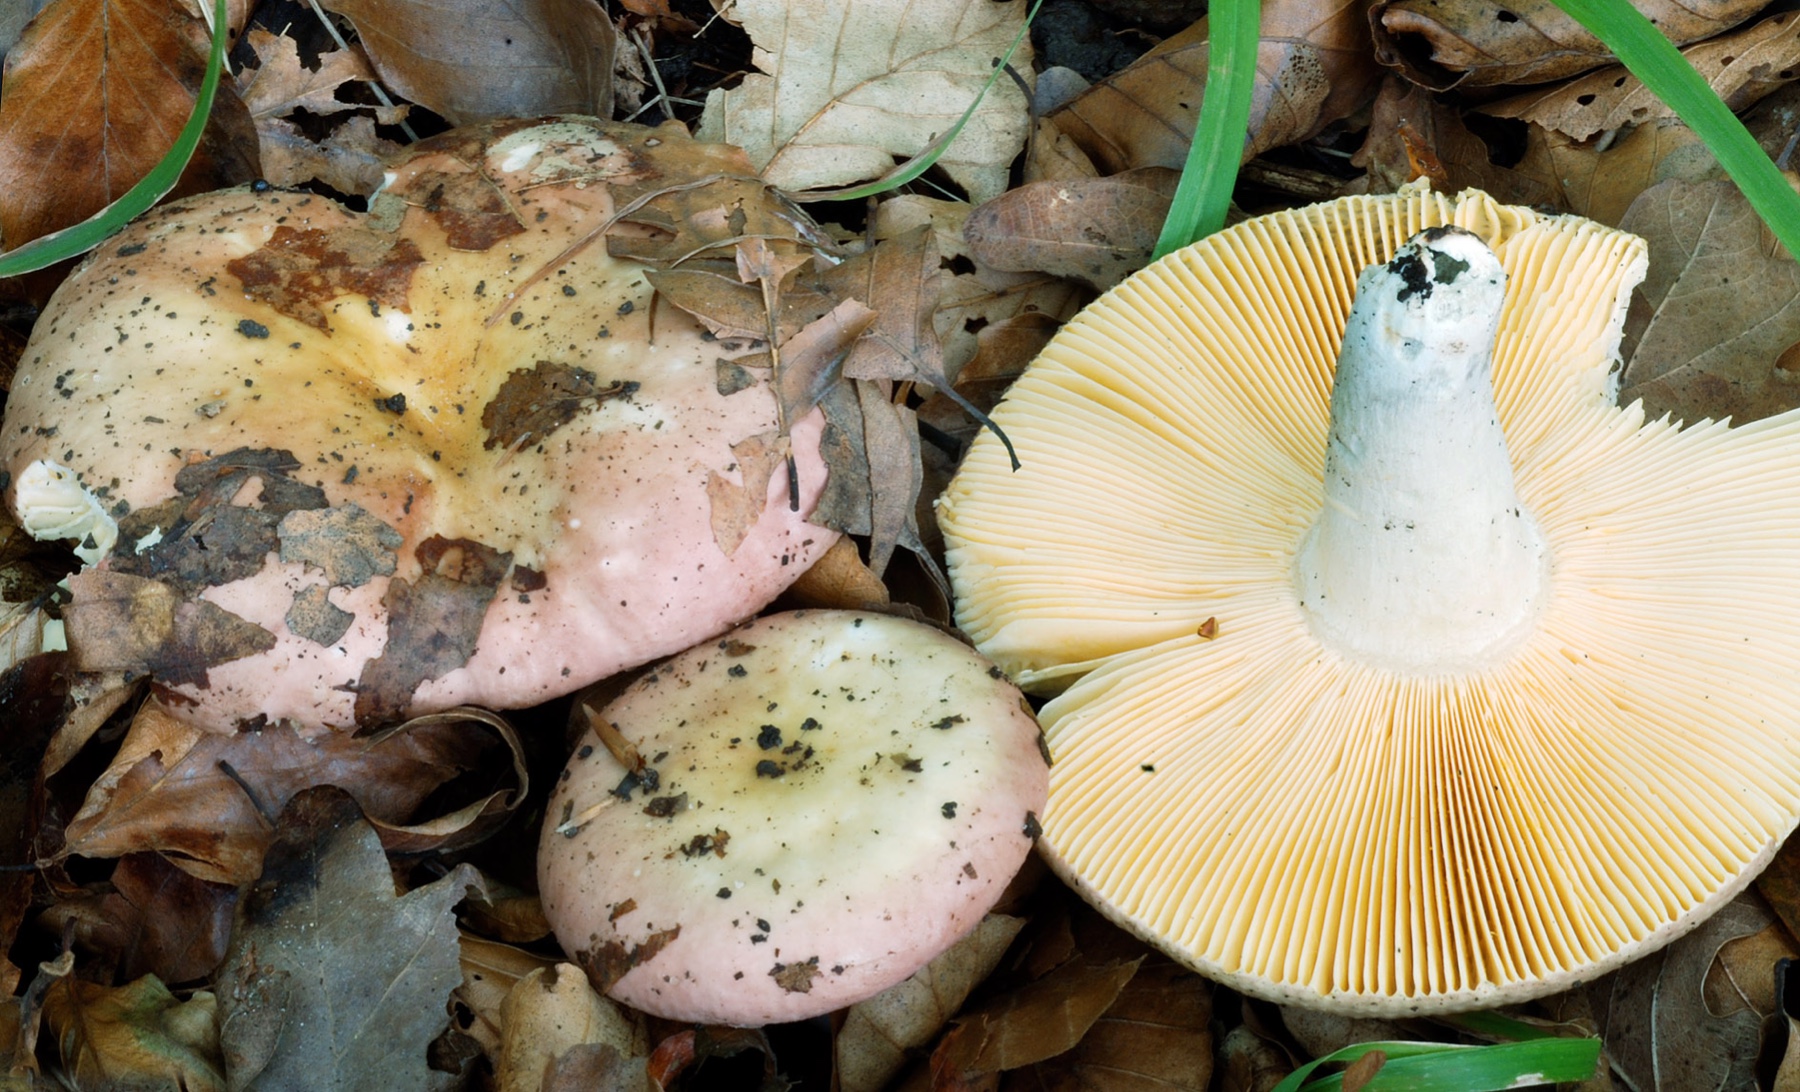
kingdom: Fungi
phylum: Basidiomycota
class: Agaricomycetes
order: Russulales
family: Russulaceae
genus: Russula
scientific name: Russula decipiens
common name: grånende skørhat
